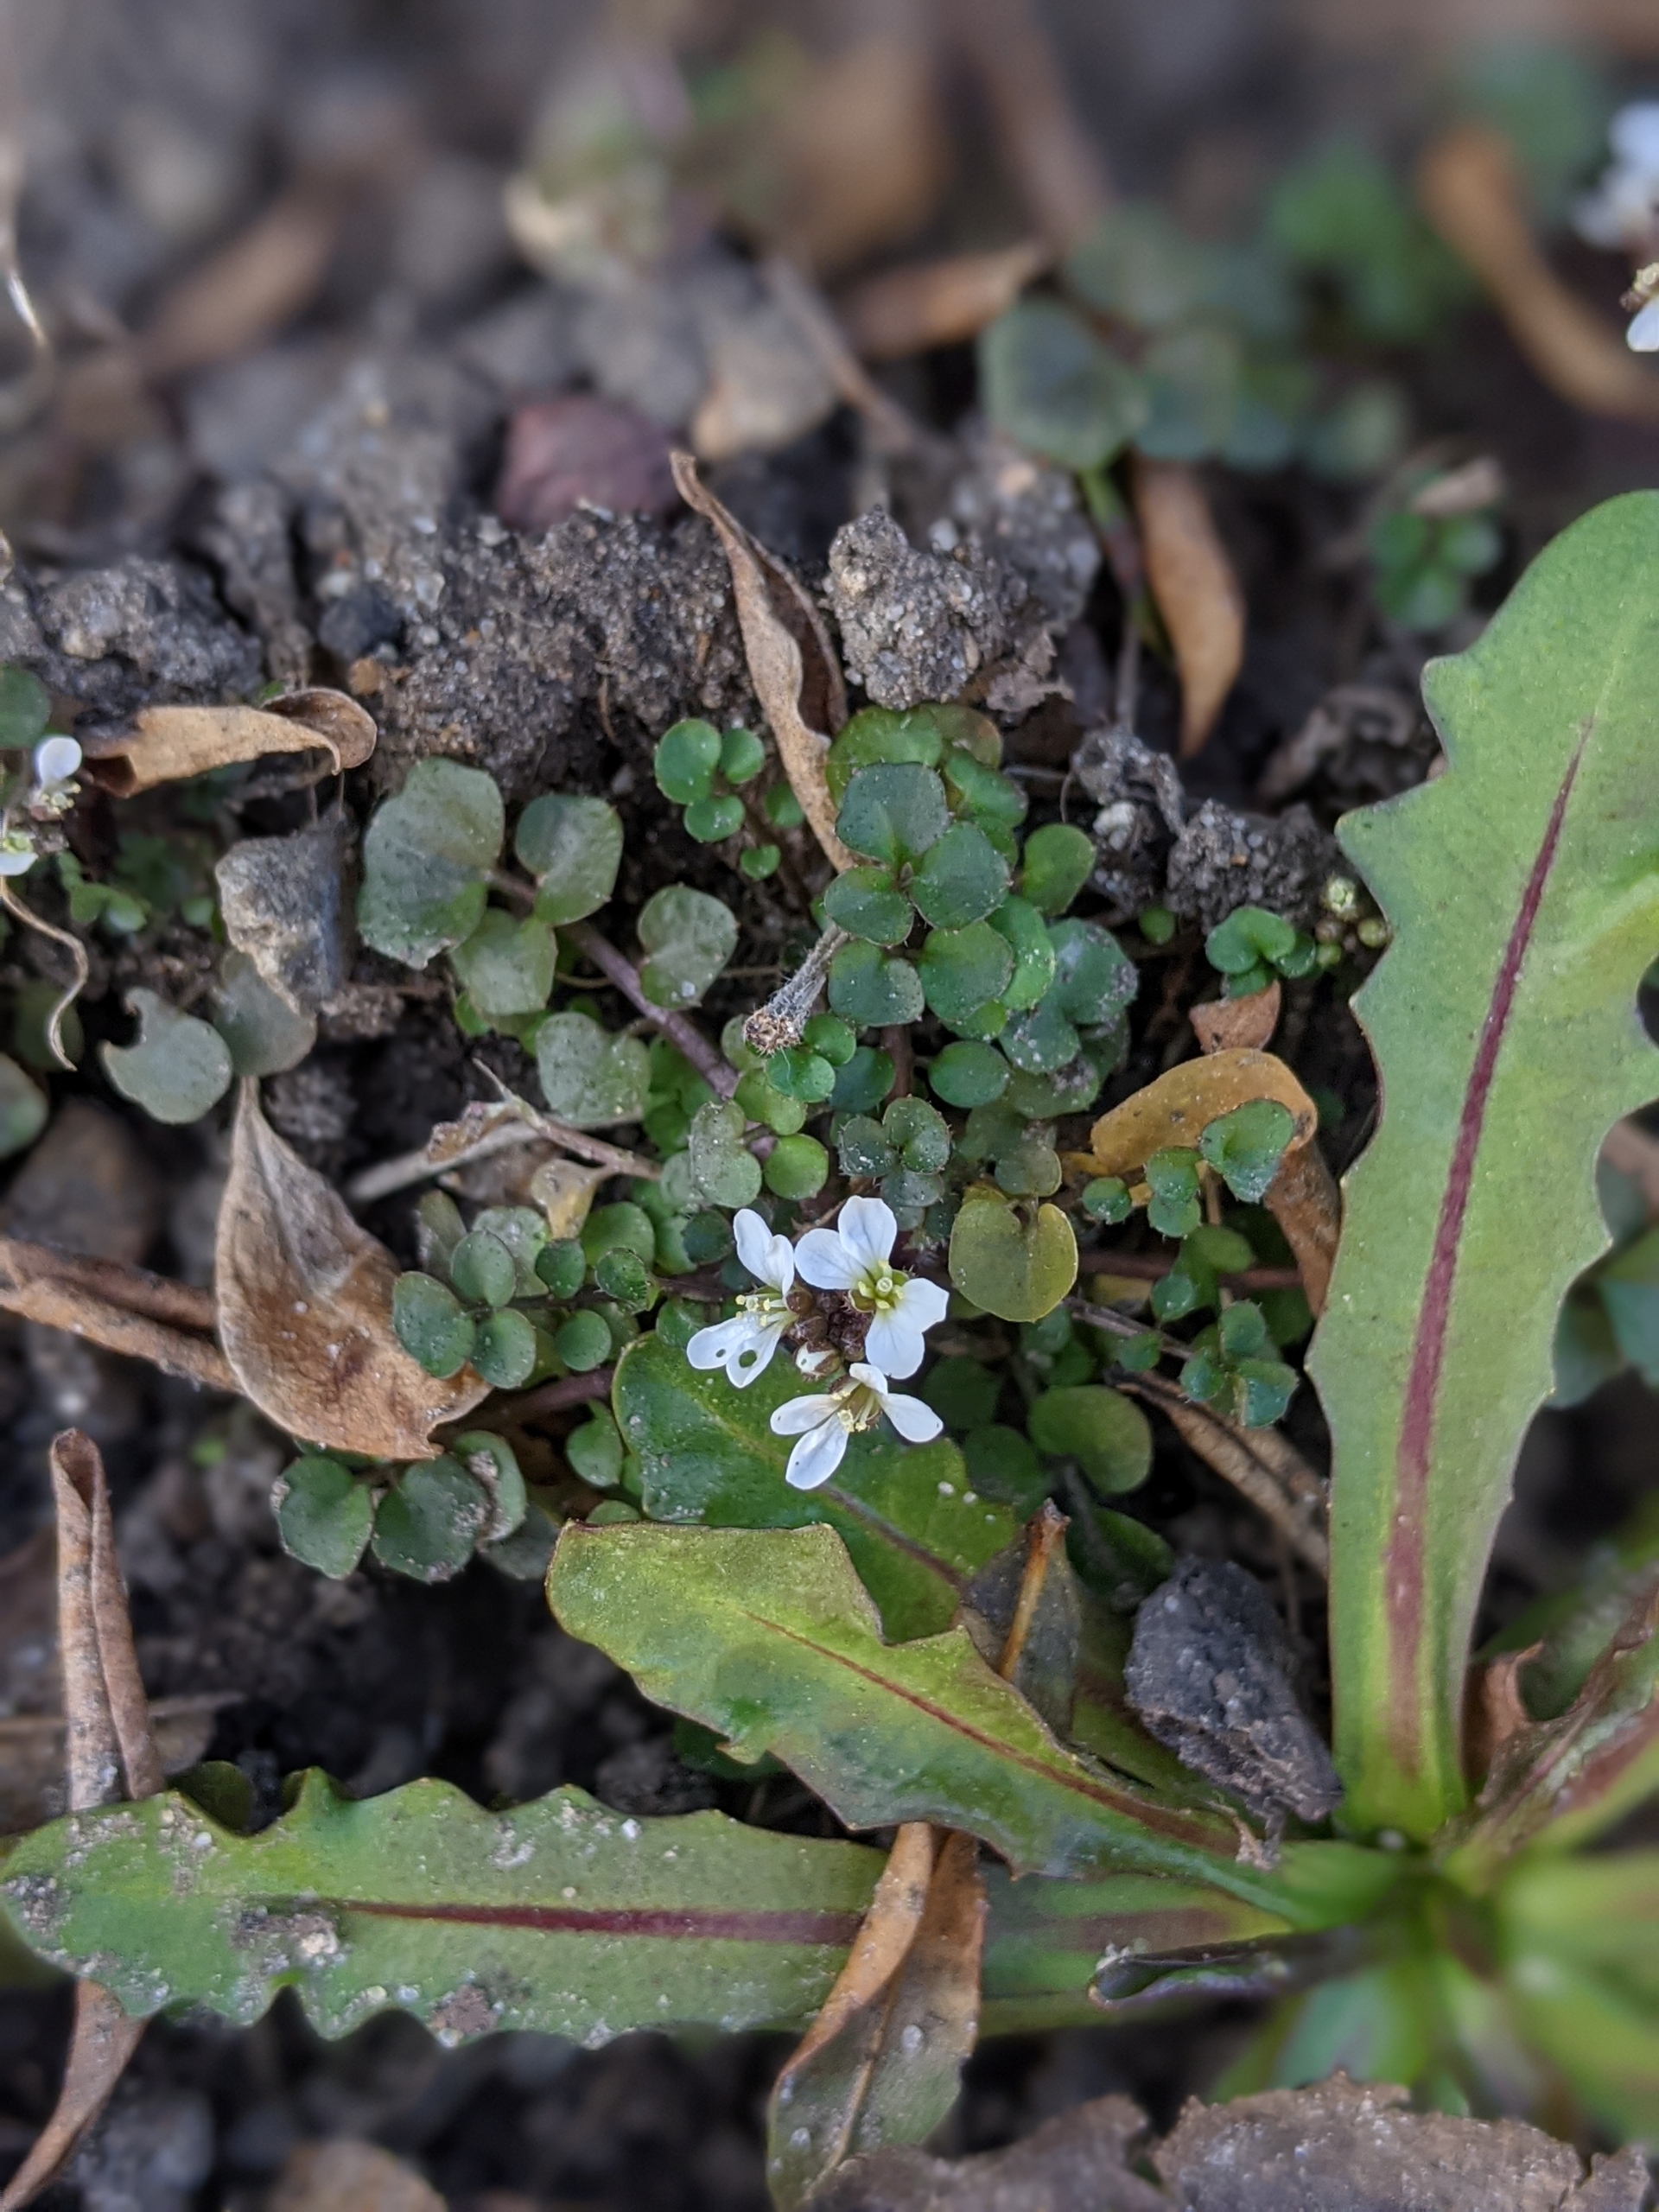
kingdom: Plantae
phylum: Tracheophyta
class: Magnoliopsida
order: Brassicales
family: Brassicaceae
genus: Cardamine
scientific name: Cardamine hirsuta
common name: Roset-springklap
